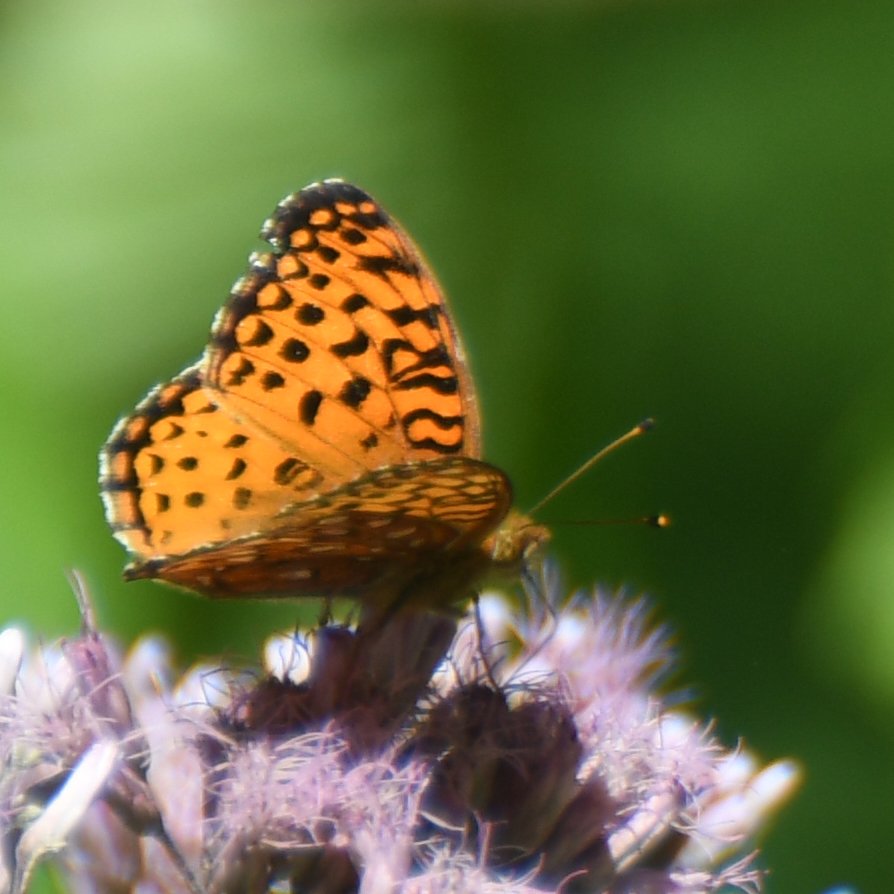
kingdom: Animalia
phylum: Arthropoda
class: Insecta
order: Lepidoptera
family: Nymphalidae
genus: Speyeria
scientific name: Speyeria aphrodite
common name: Aphrodite Fritillary
